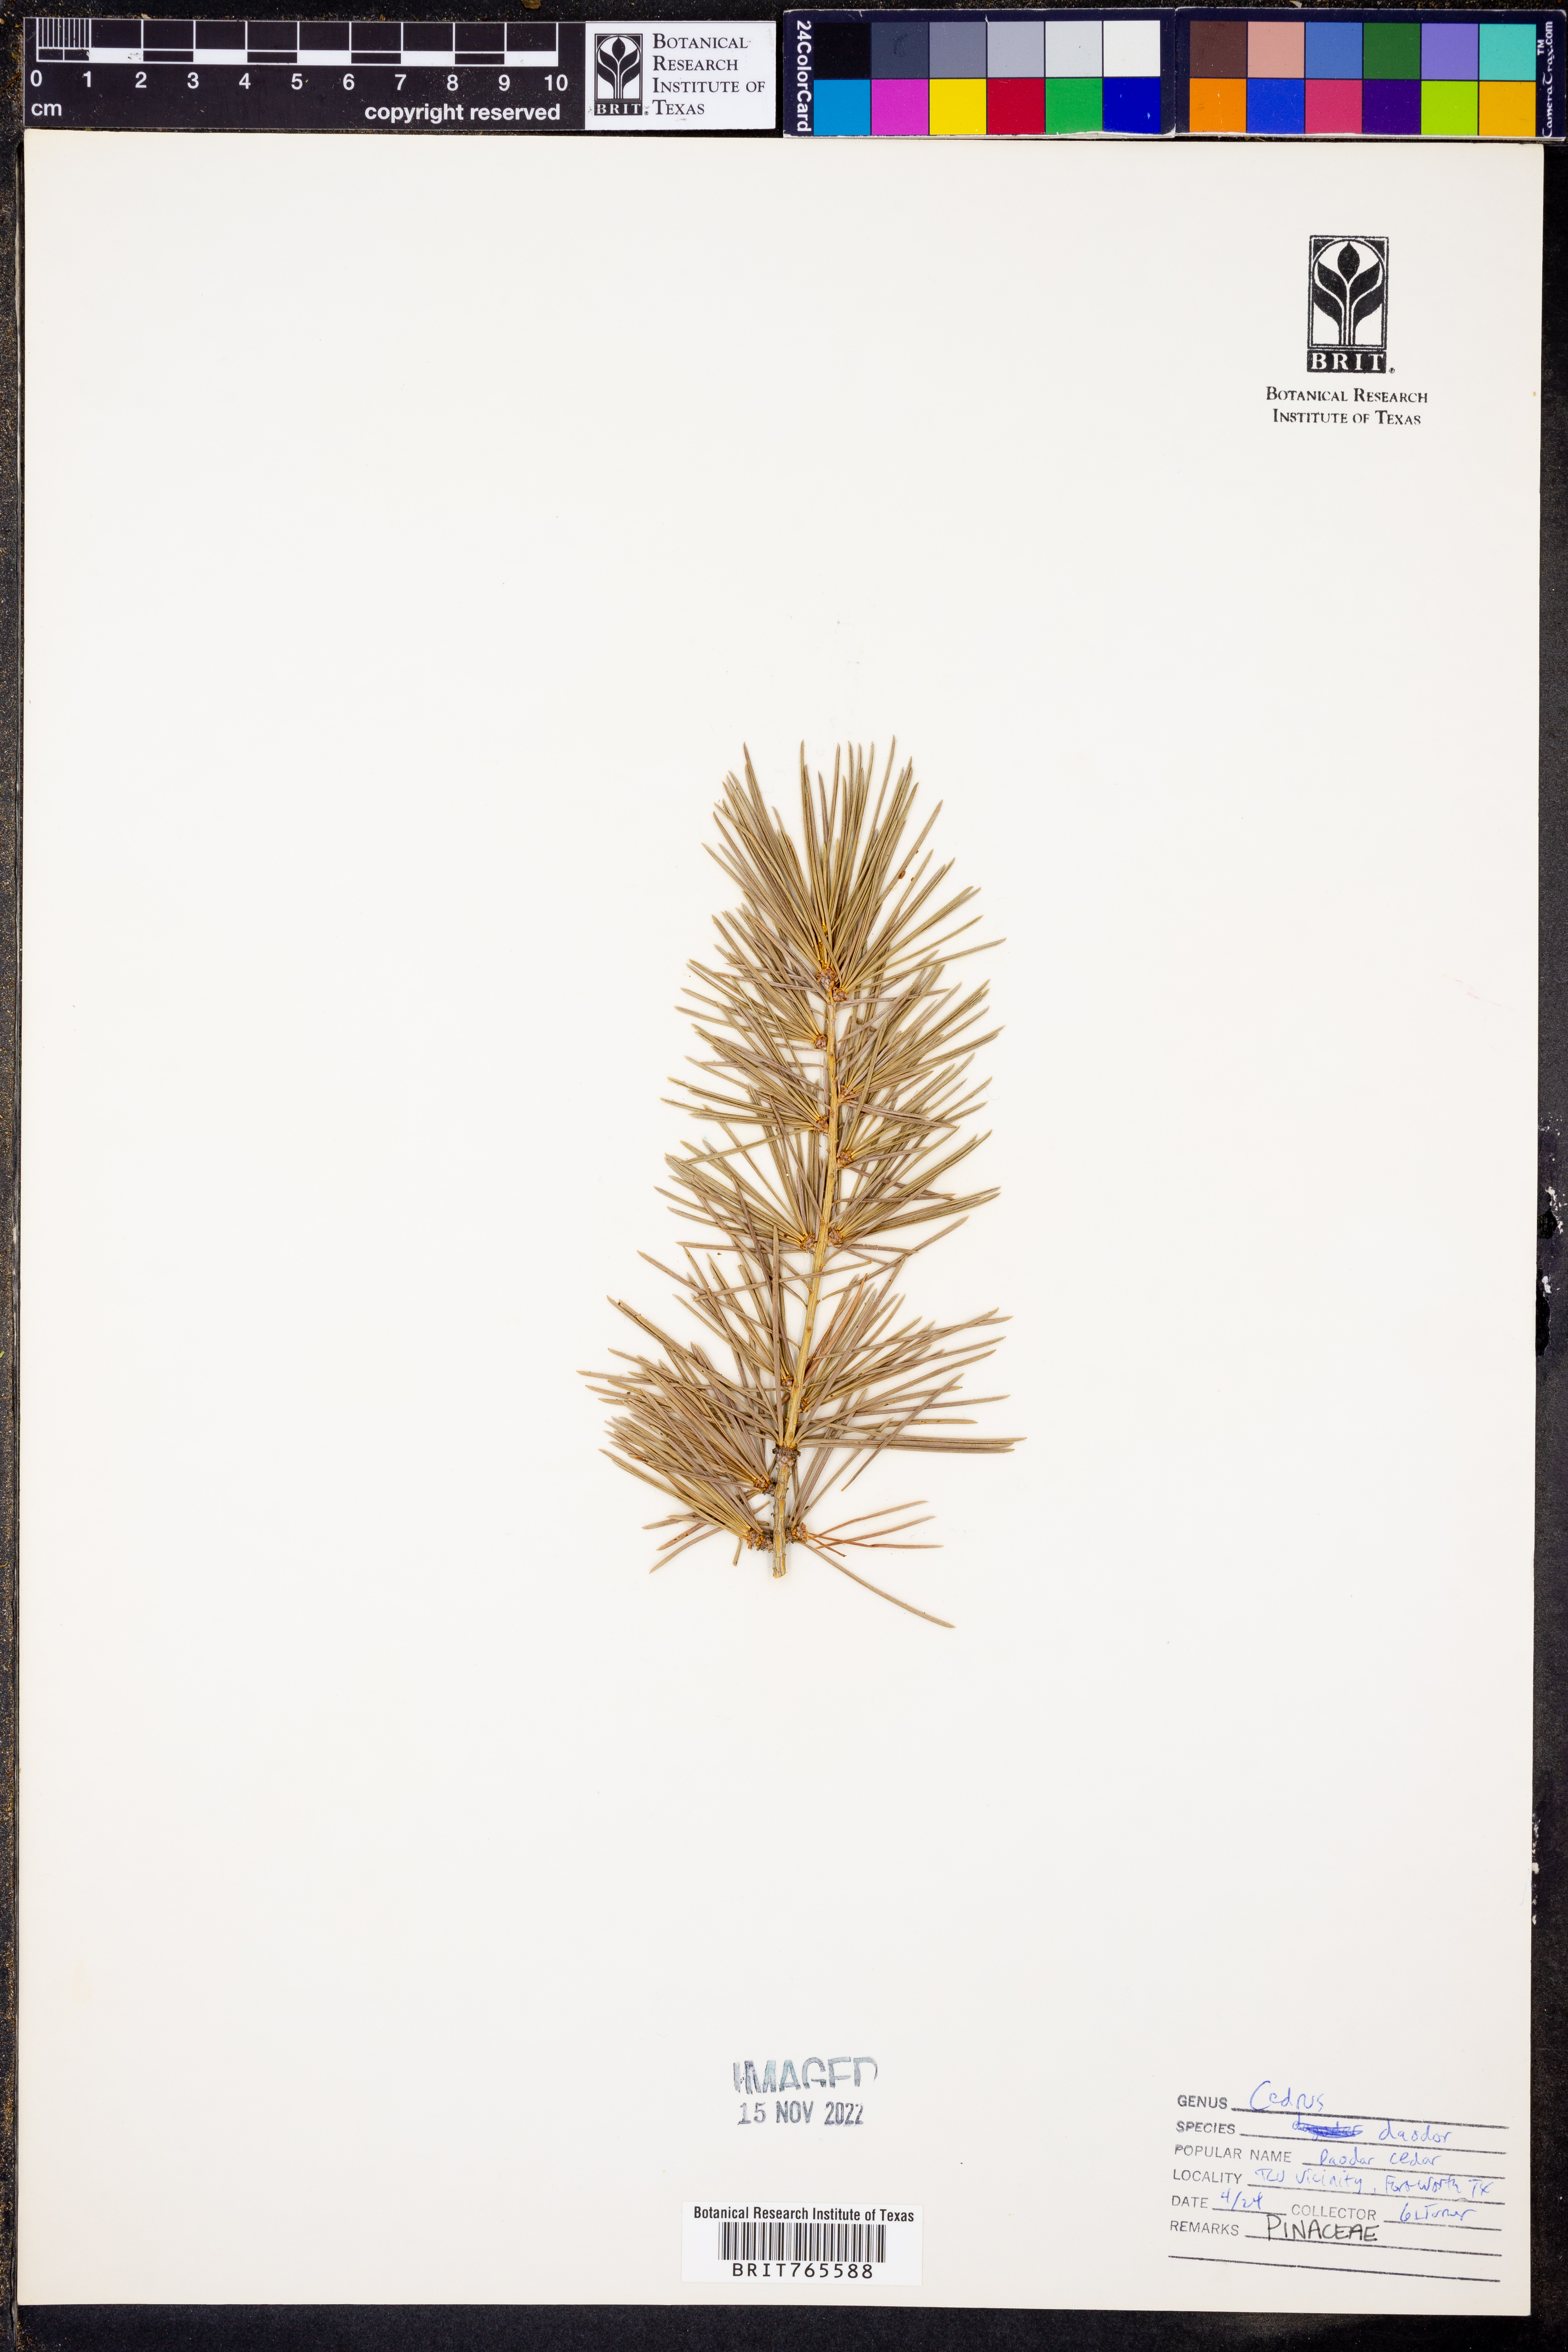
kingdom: Plantae
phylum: Tracheophyta
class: Pinopsida
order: Pinales
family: Pinaceae
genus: Cedrus
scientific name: Cedrus deodara
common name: Deodar
